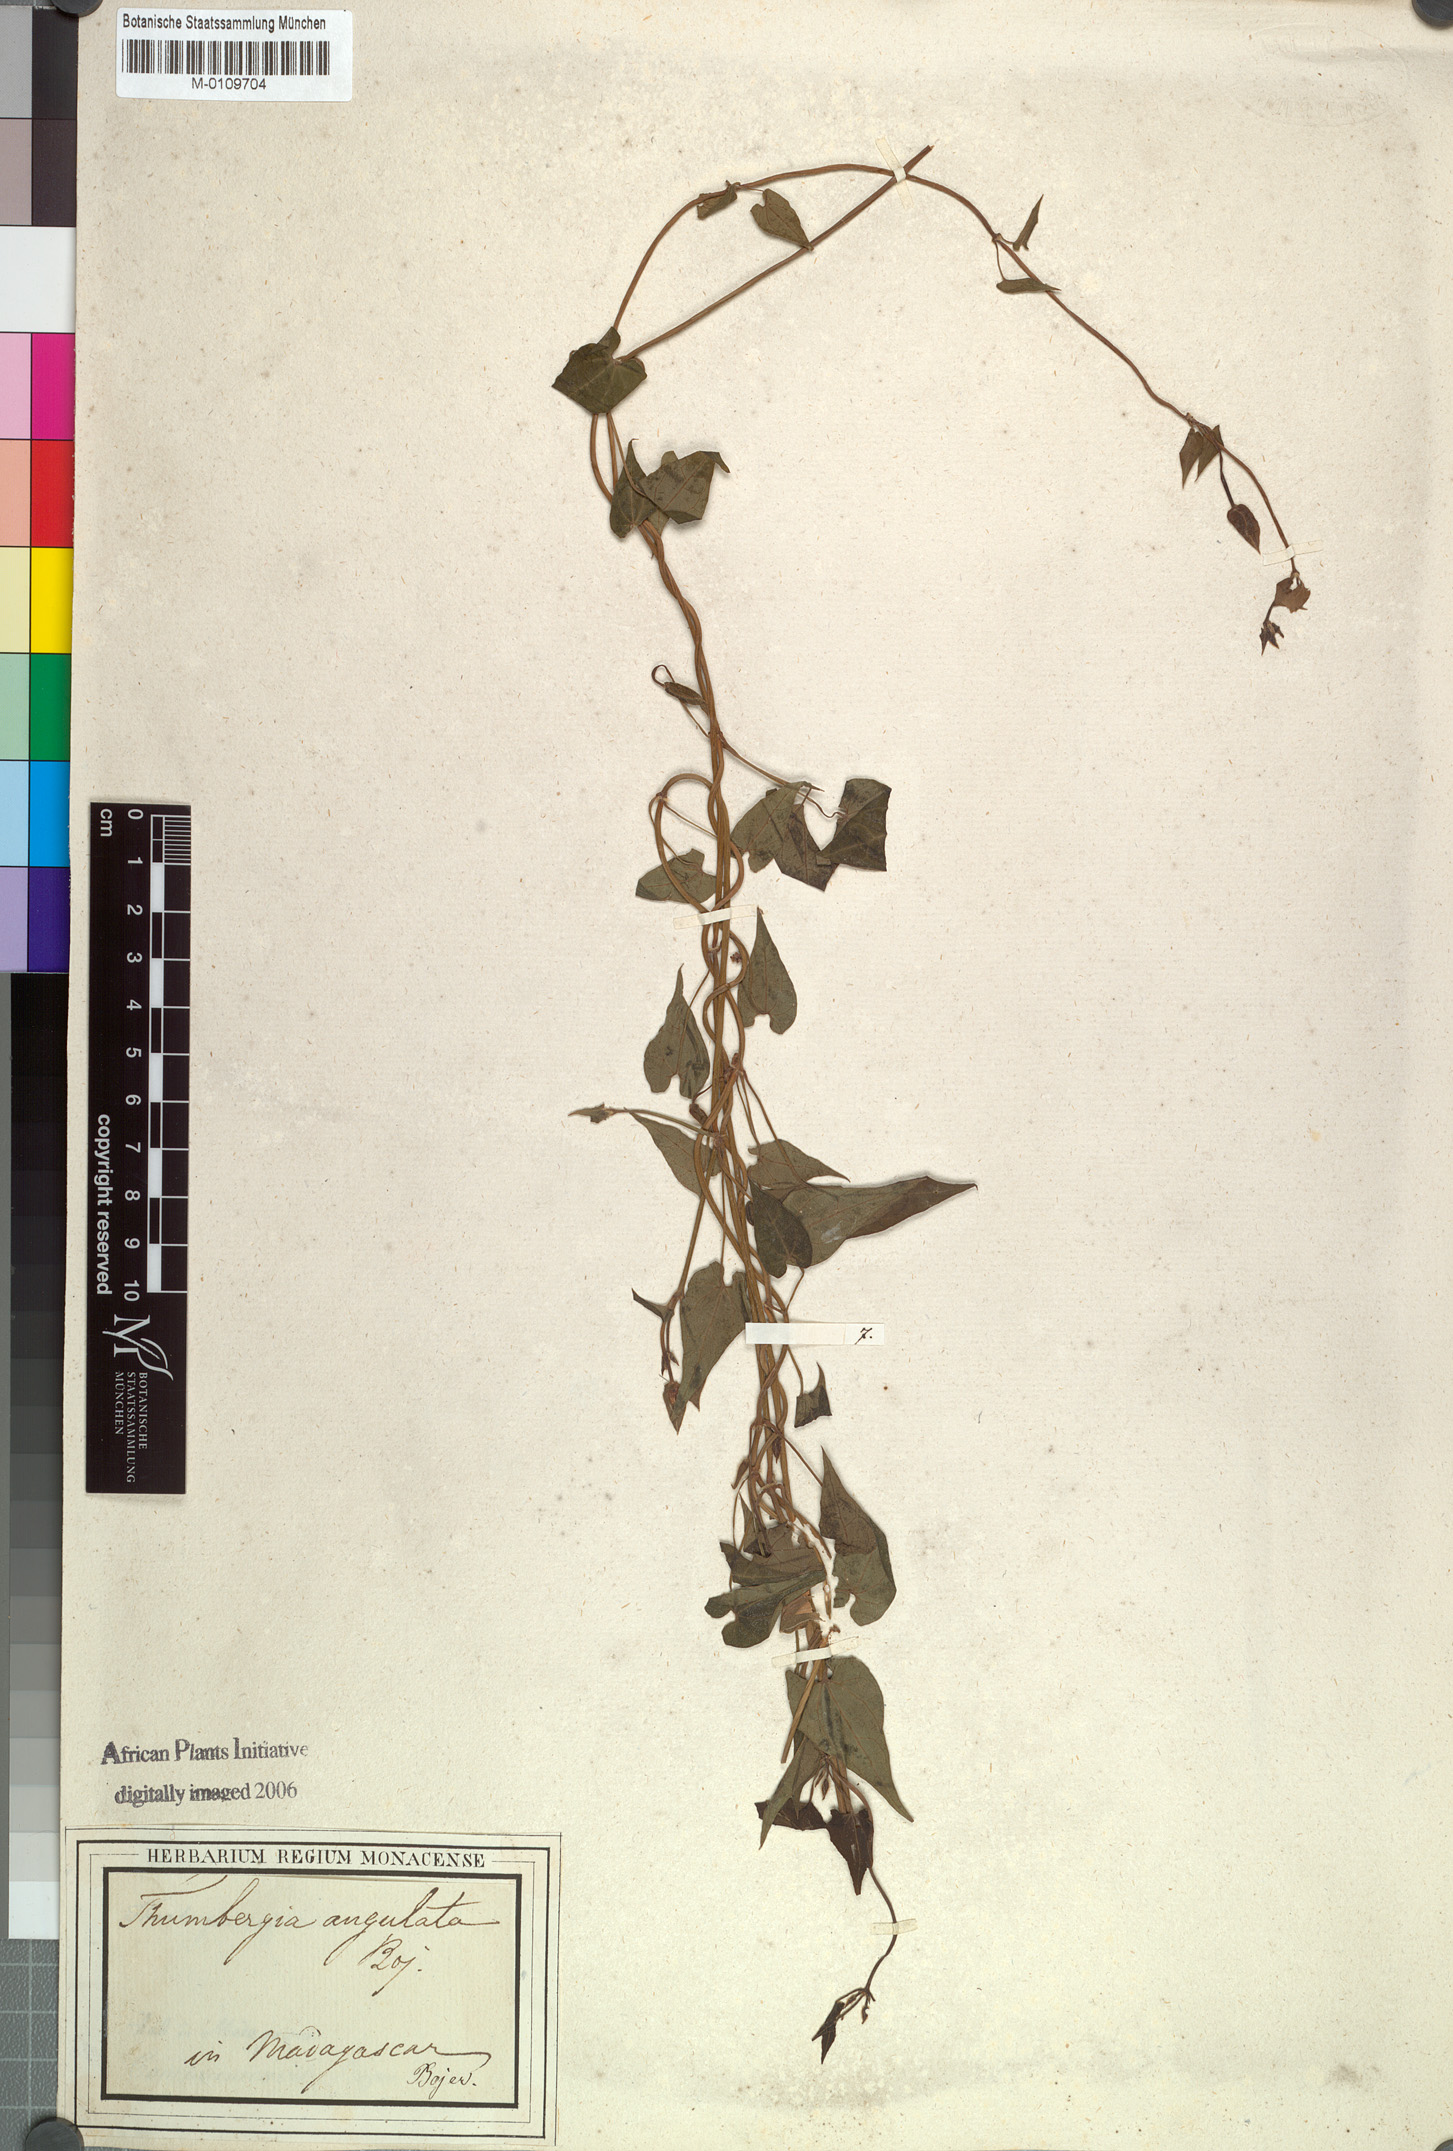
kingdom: Plantae
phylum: Tracheophyta
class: Magnoliopsida
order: Lamiales
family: Acanthaceae
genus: Thunbergia
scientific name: Thunbergia angulata
